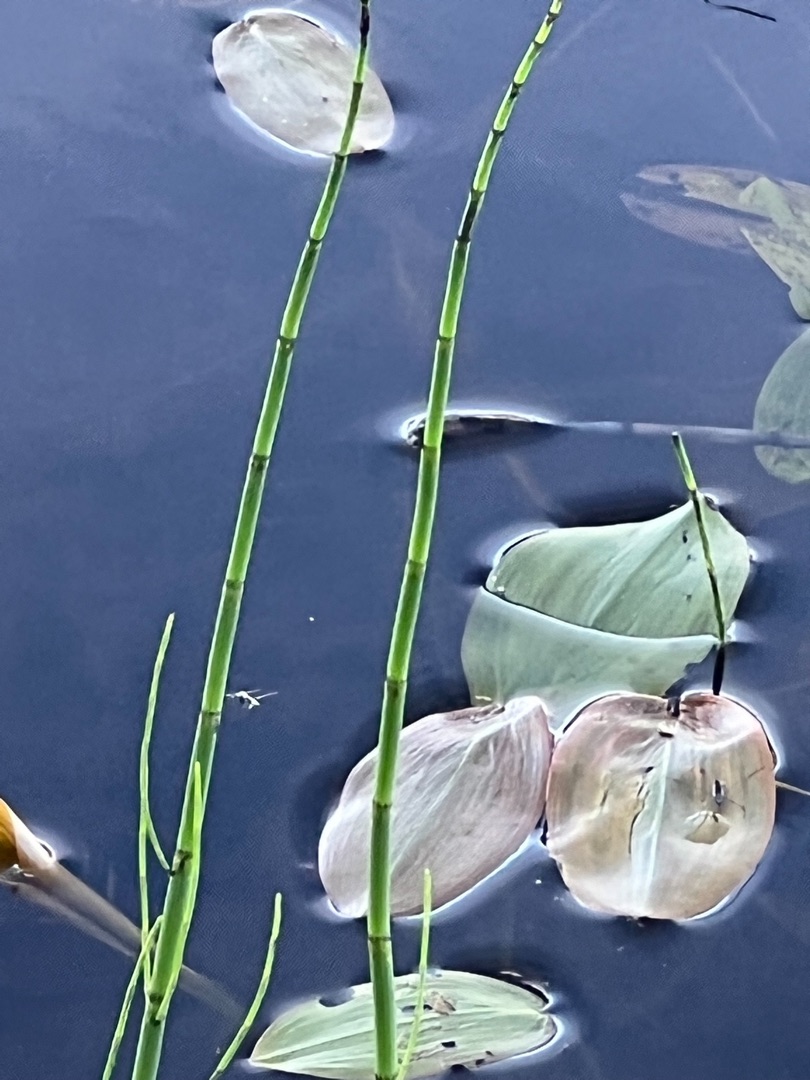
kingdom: Plantae
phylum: Tracheophyta
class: Polypodiopsida
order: Equisetales
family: Equisetaceae
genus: Equisetum
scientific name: Equisetum fluviatile
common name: Dynd-padderok
